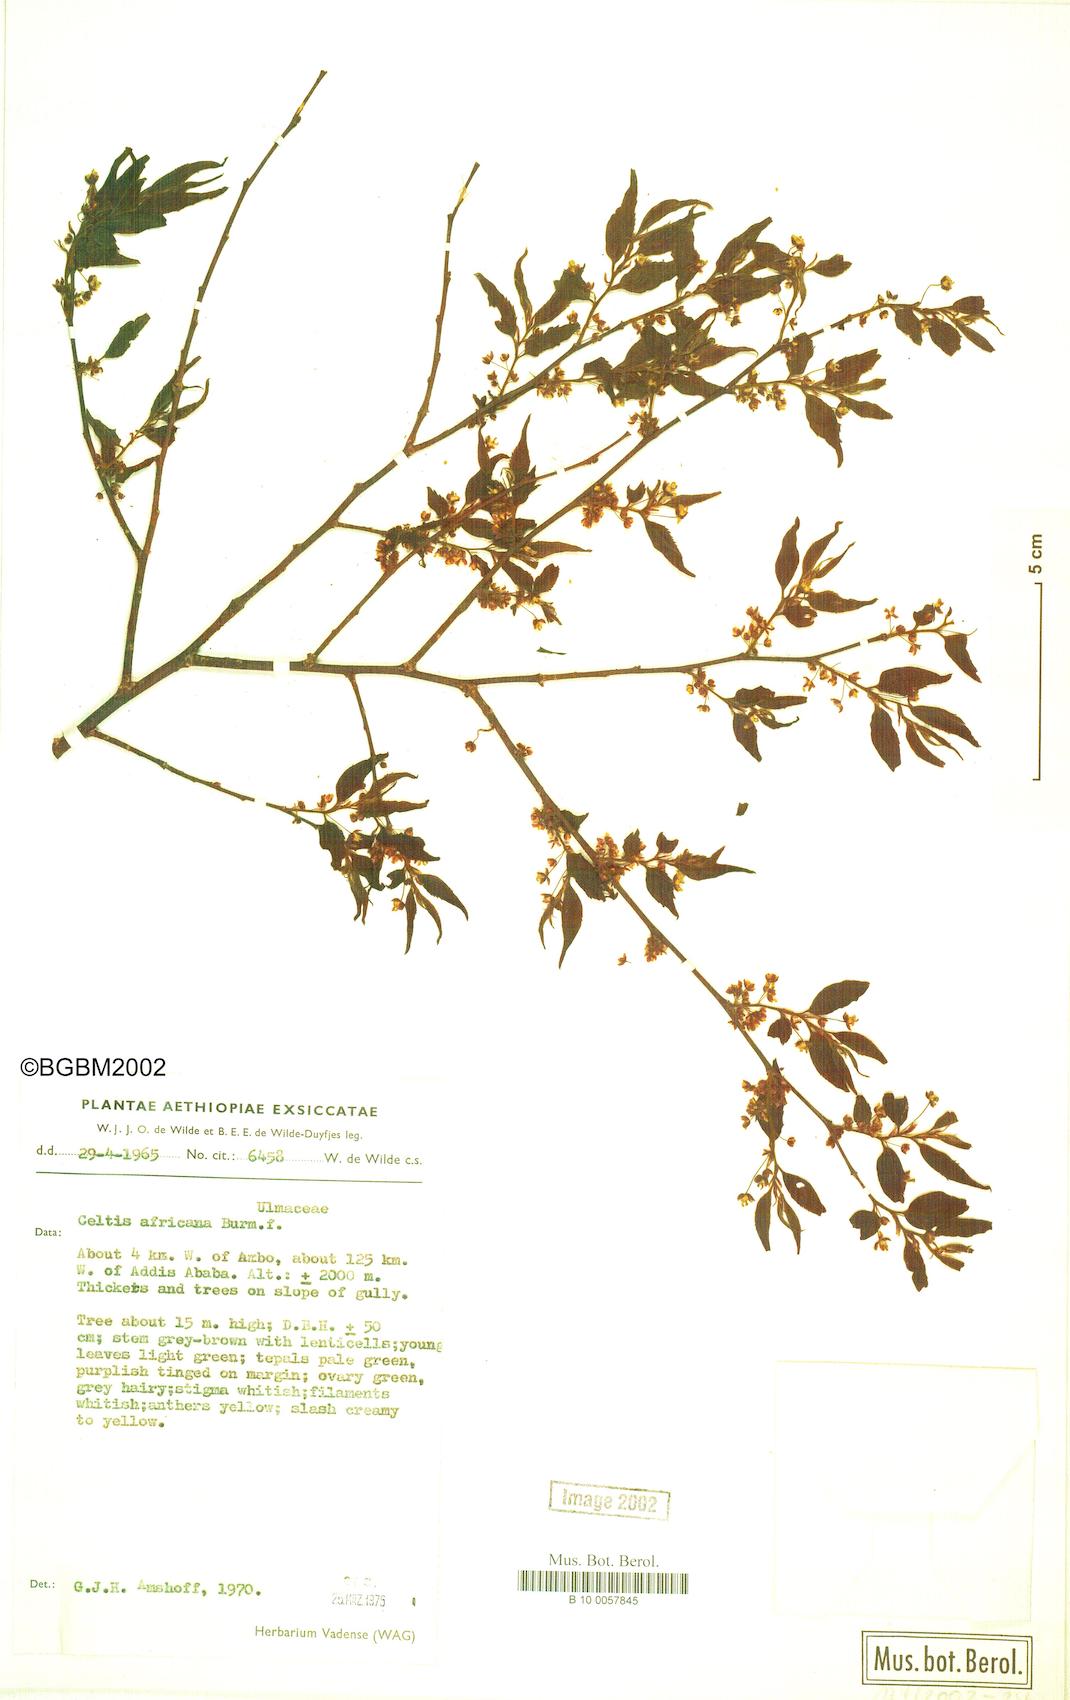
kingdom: Plantae
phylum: Tracheophyta
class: Magnoliopsida
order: Rosales
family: Cannabaceae
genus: Celtis
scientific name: Celtis africana
